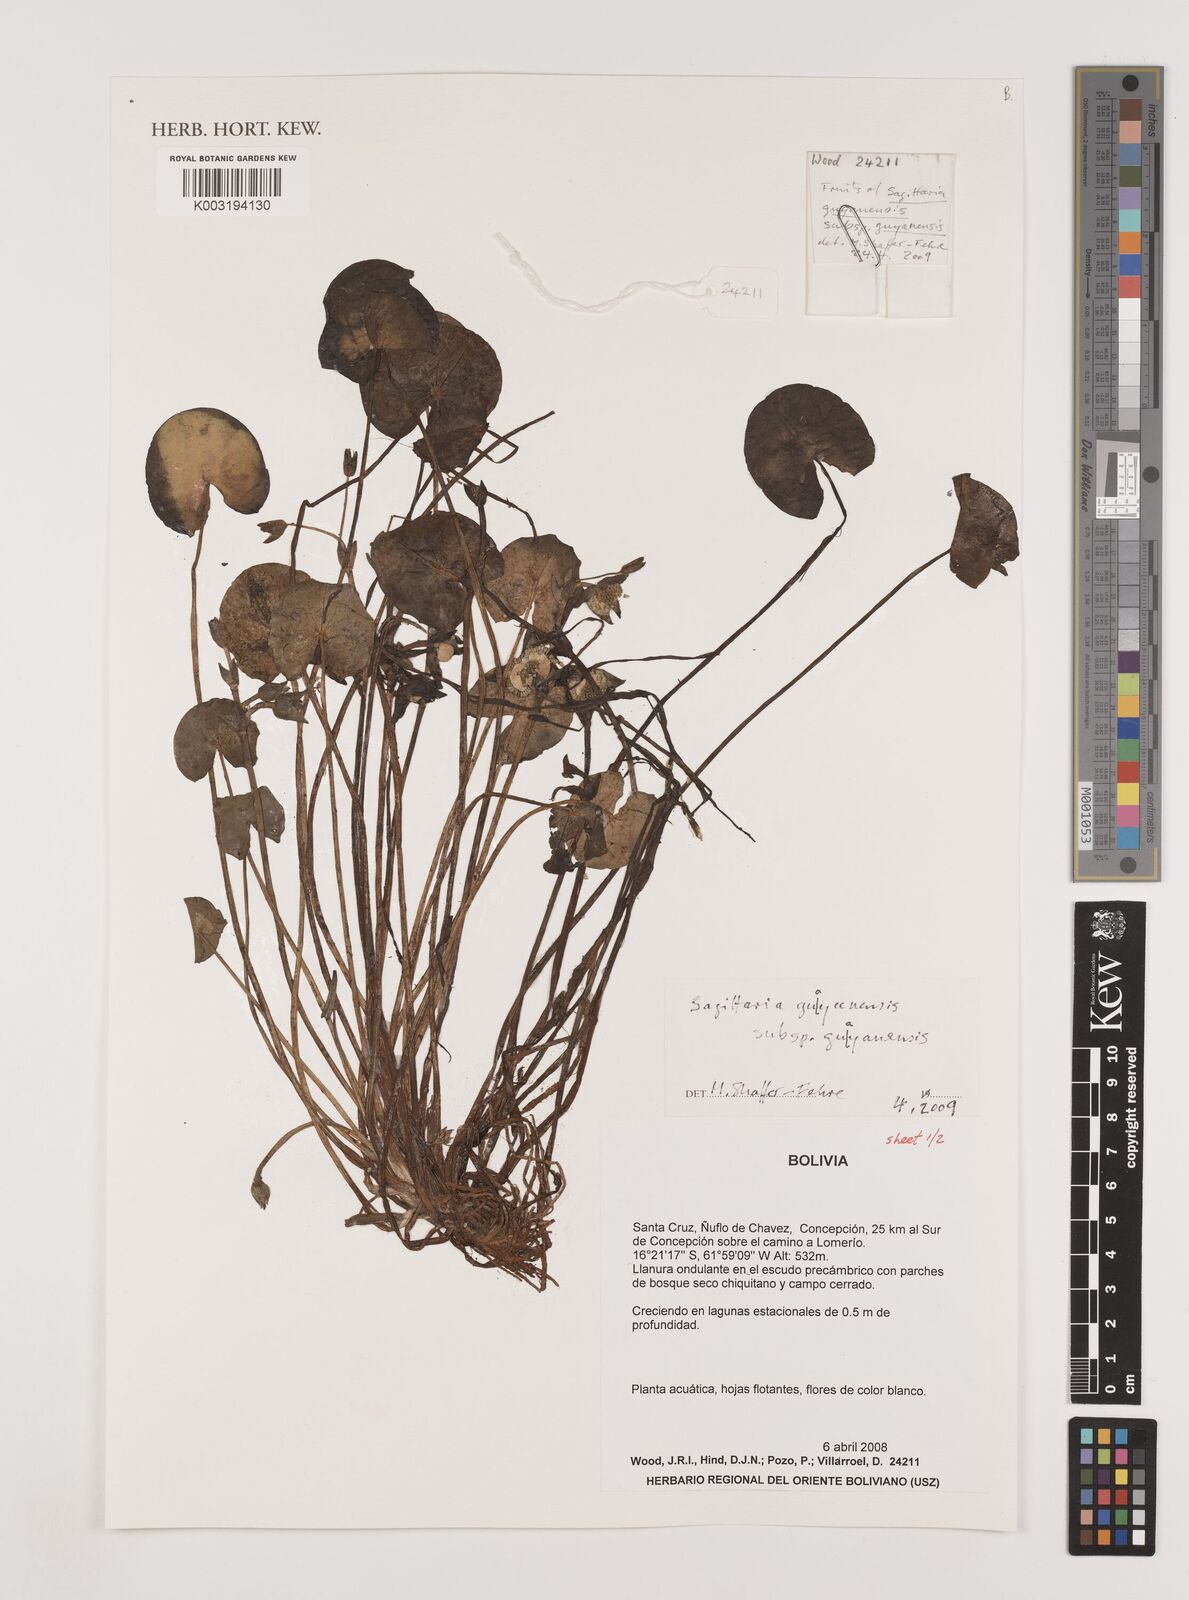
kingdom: Plantae
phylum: Tracheophyta
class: Liliopsida
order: Alismatales
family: Alismataceae
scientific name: Alismataceae
